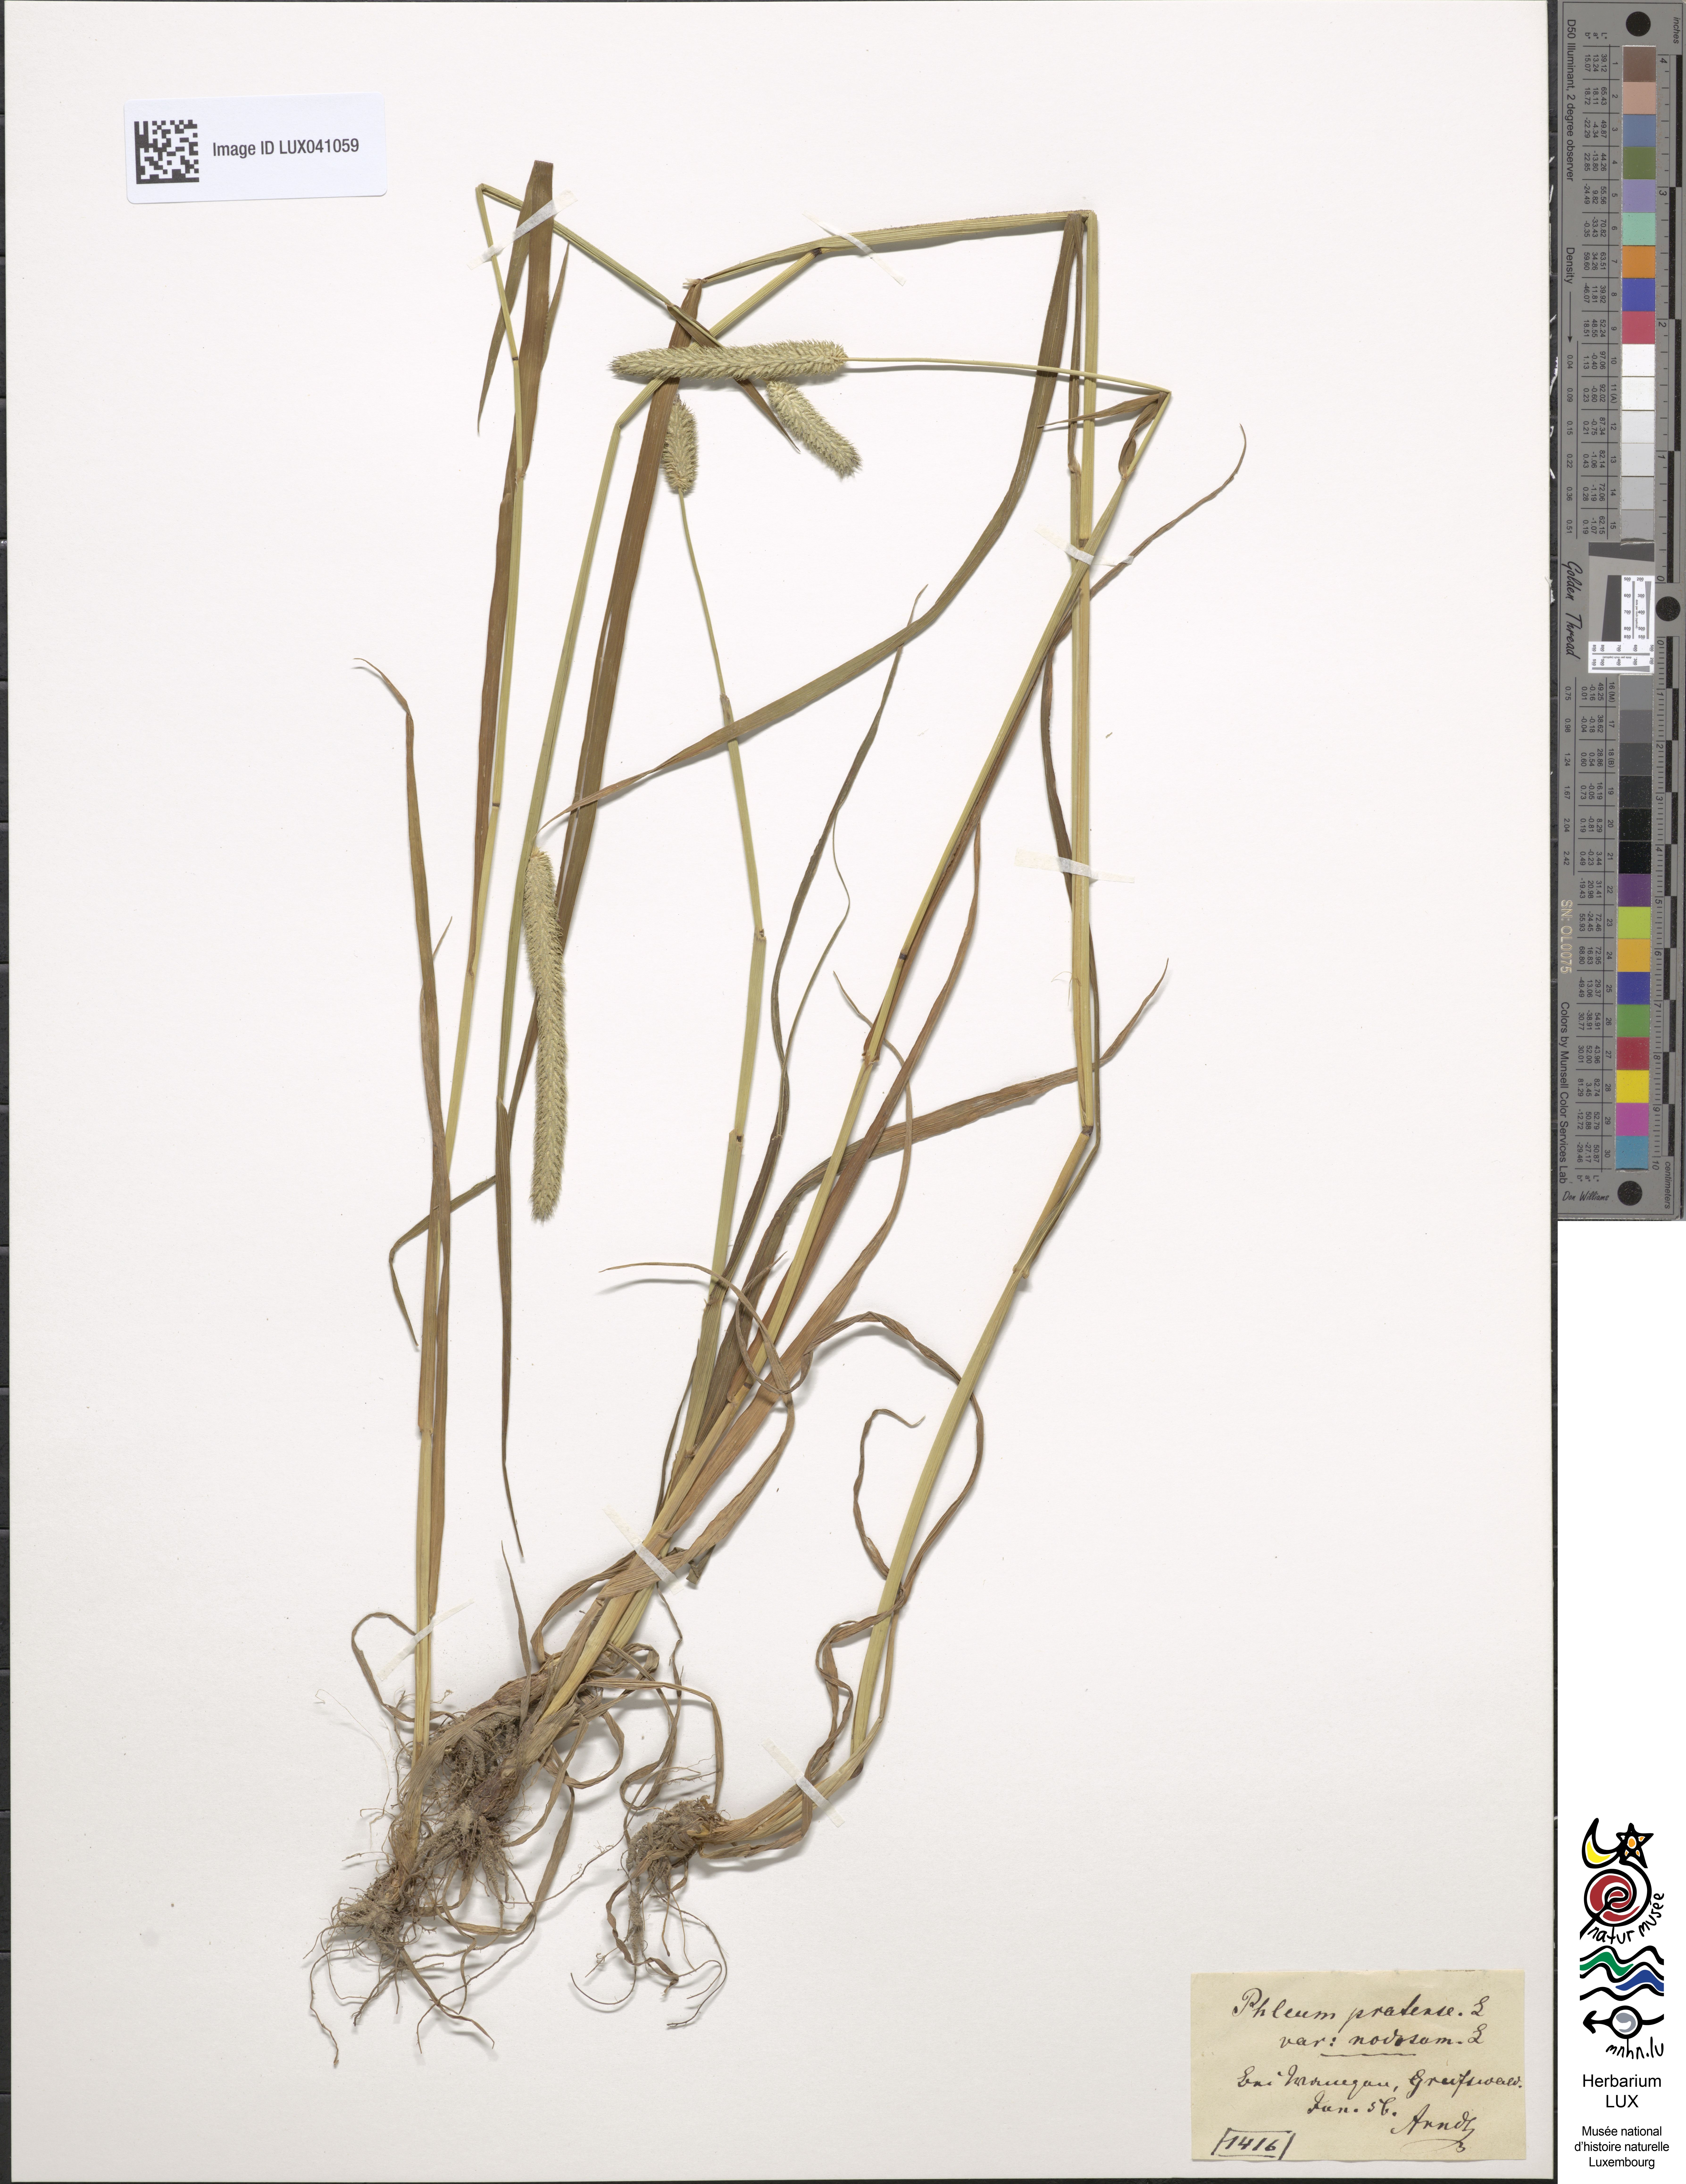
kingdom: Plantae
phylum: Tracheophyta
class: Liliopsida
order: Poales
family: Poaceae
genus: Phleum
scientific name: Phleum pratense
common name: Timothy grass
